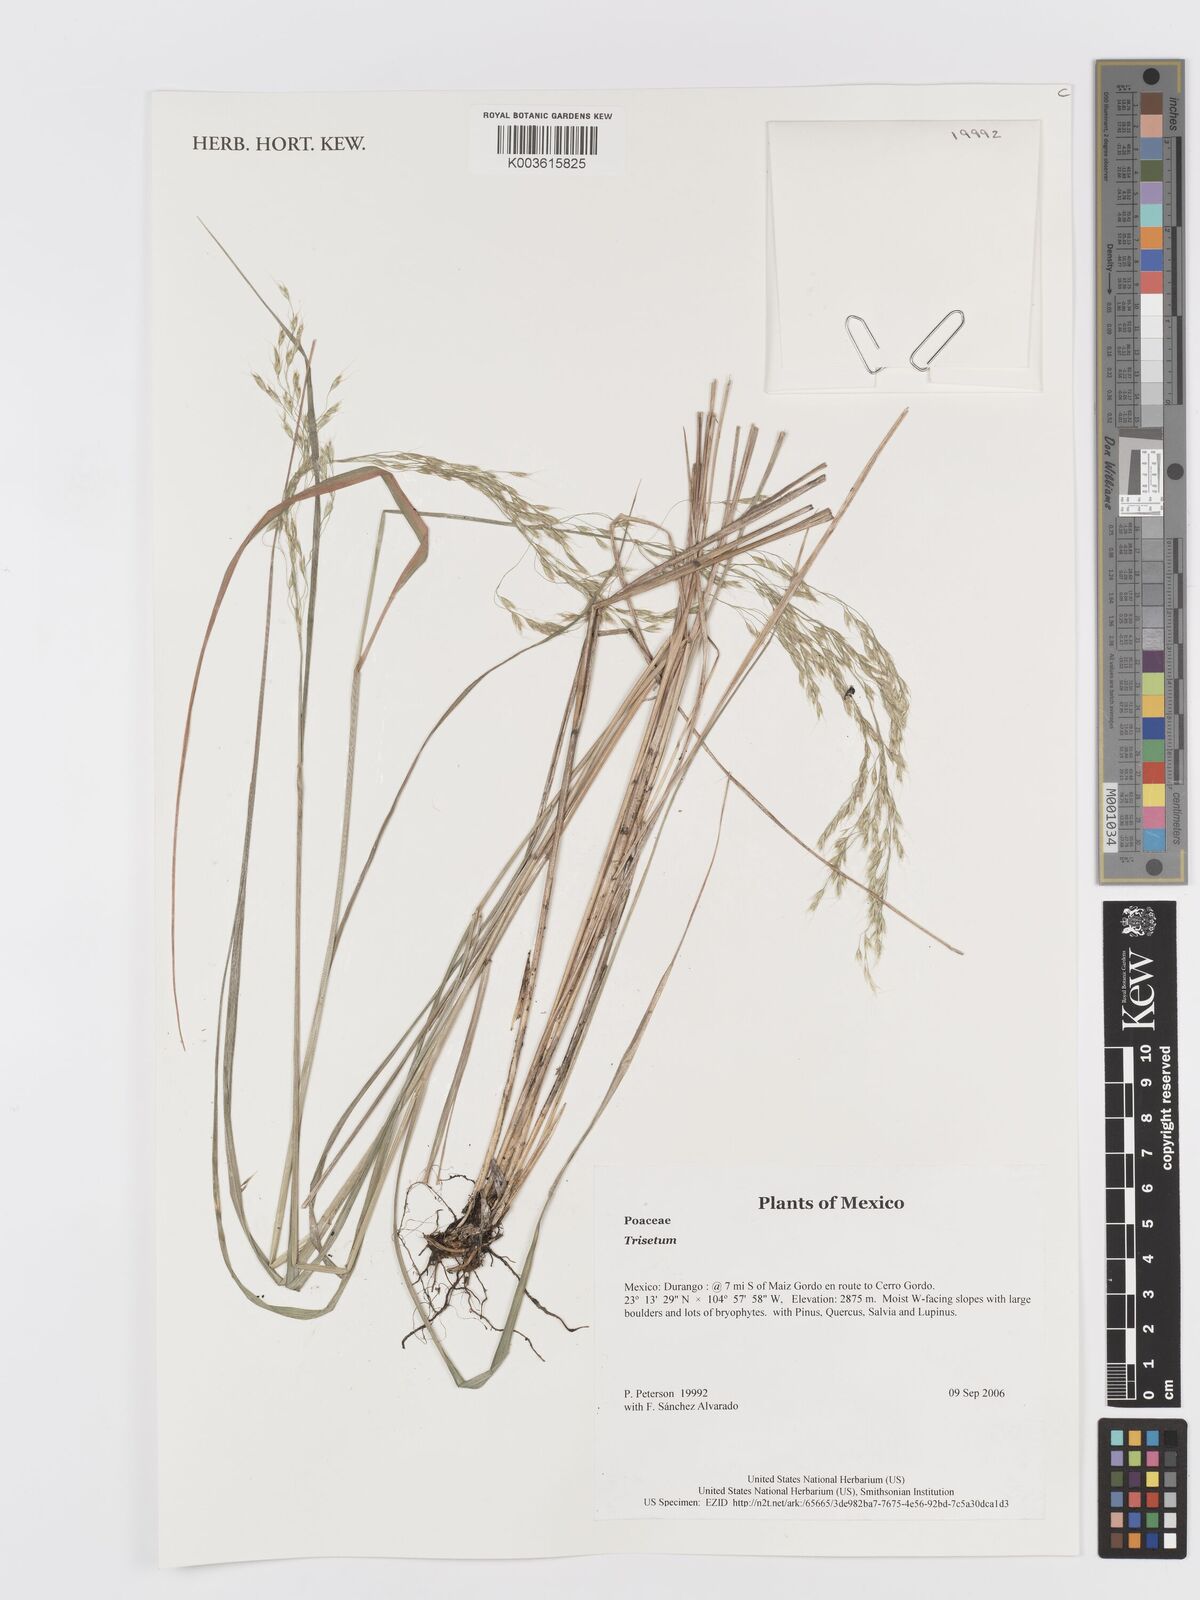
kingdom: Plantae
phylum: Tracheophyta
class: Liliopsida
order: Poales
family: Poaceae
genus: Trisetum
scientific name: Trisetum
